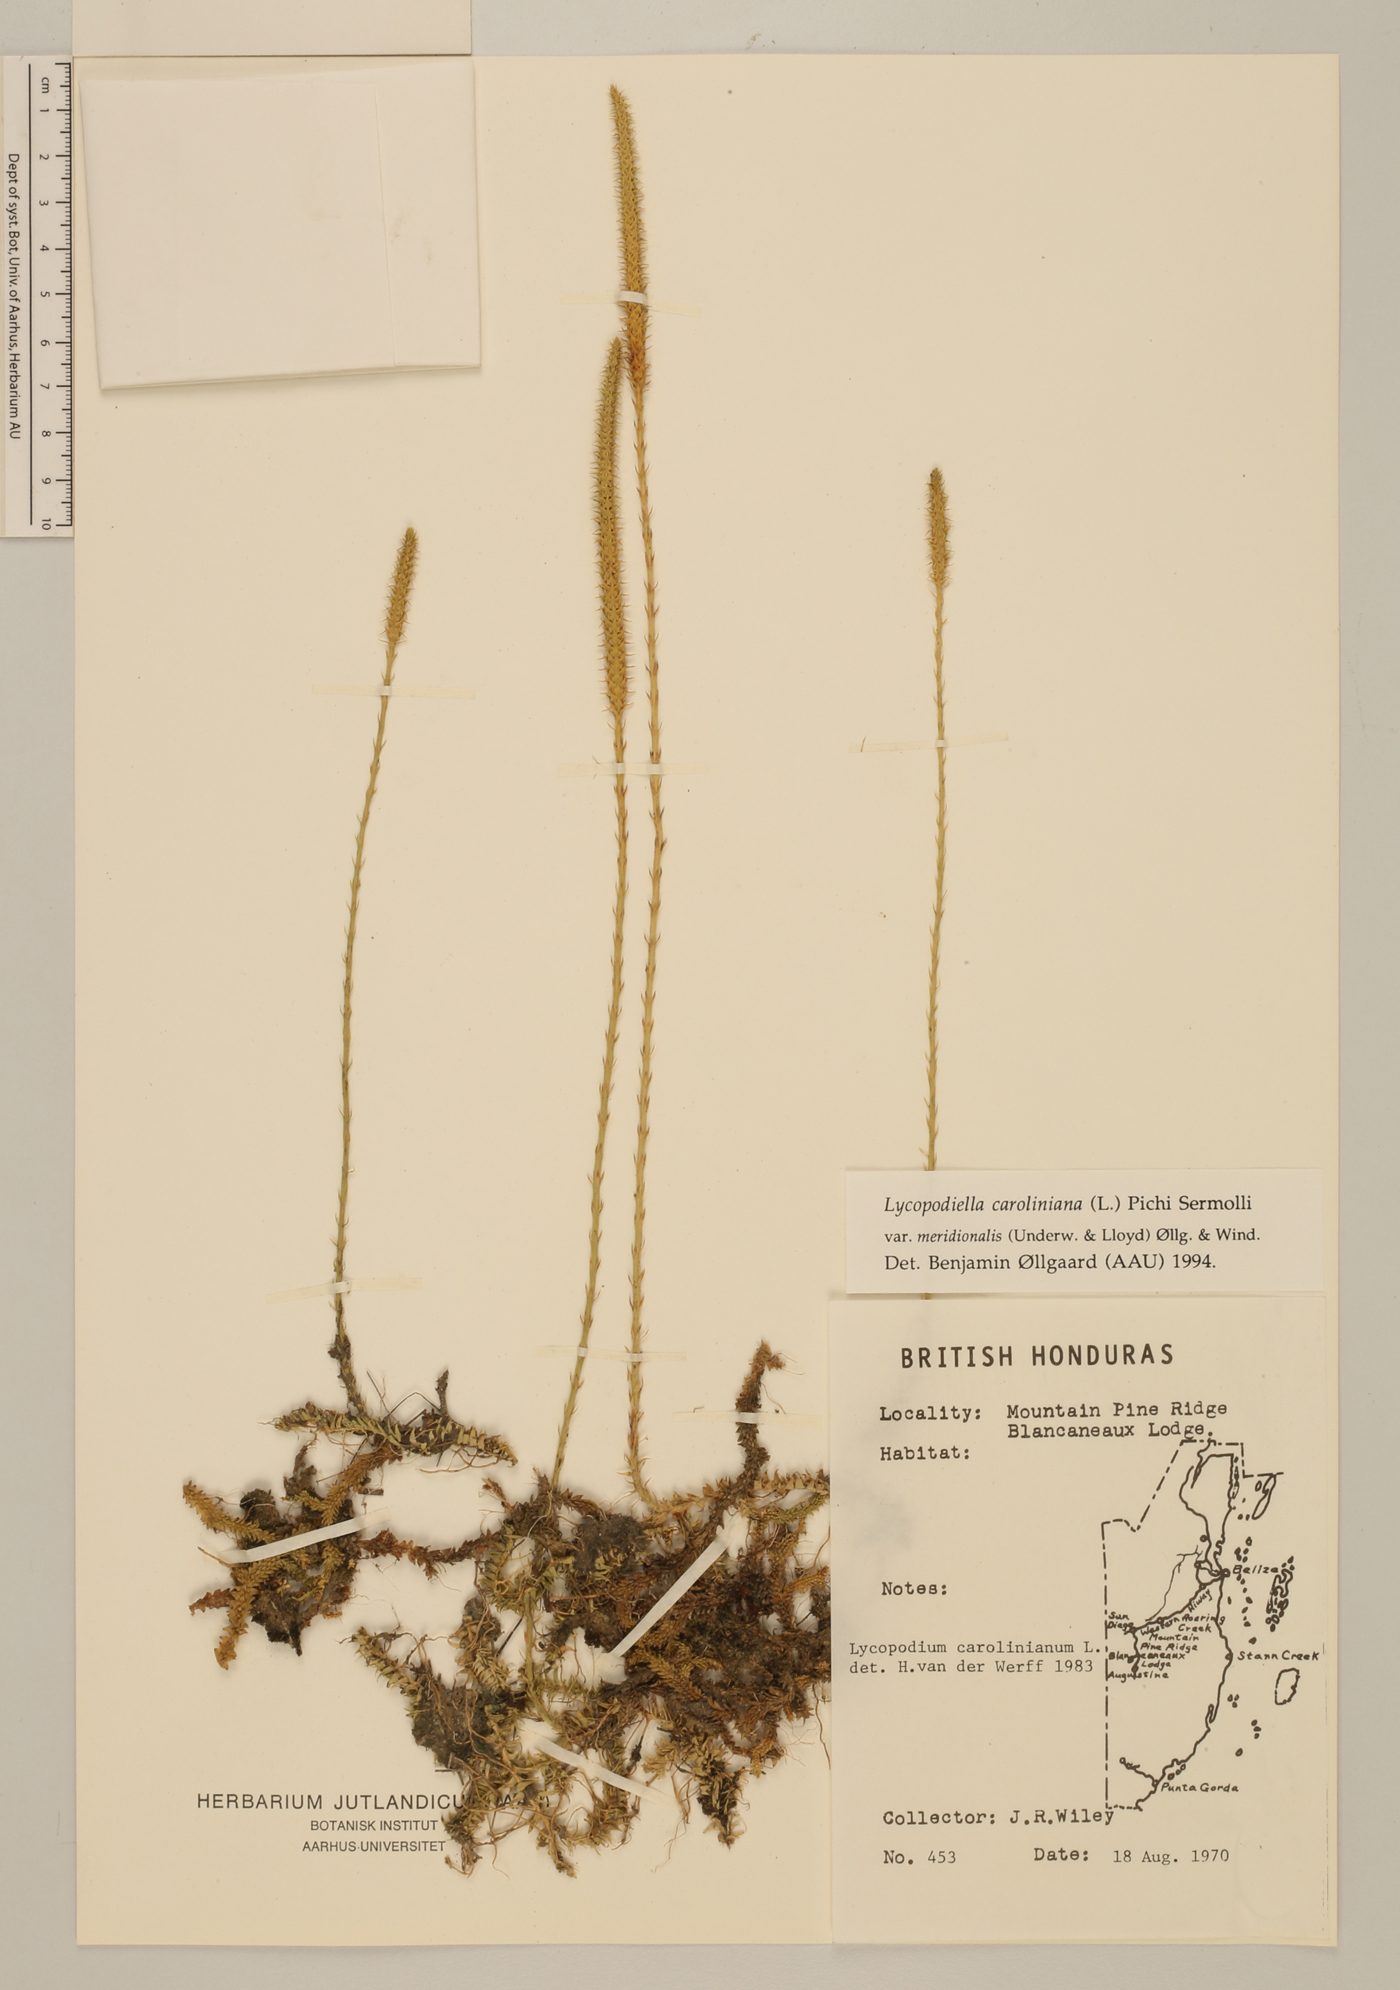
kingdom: Plantae
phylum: Tracheophyta
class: Lycopodiopsida
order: Lycopodiales
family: Lycopodiaceae
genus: Pseudolycopodiella
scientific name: Pseudolycopodiella meridionalis
